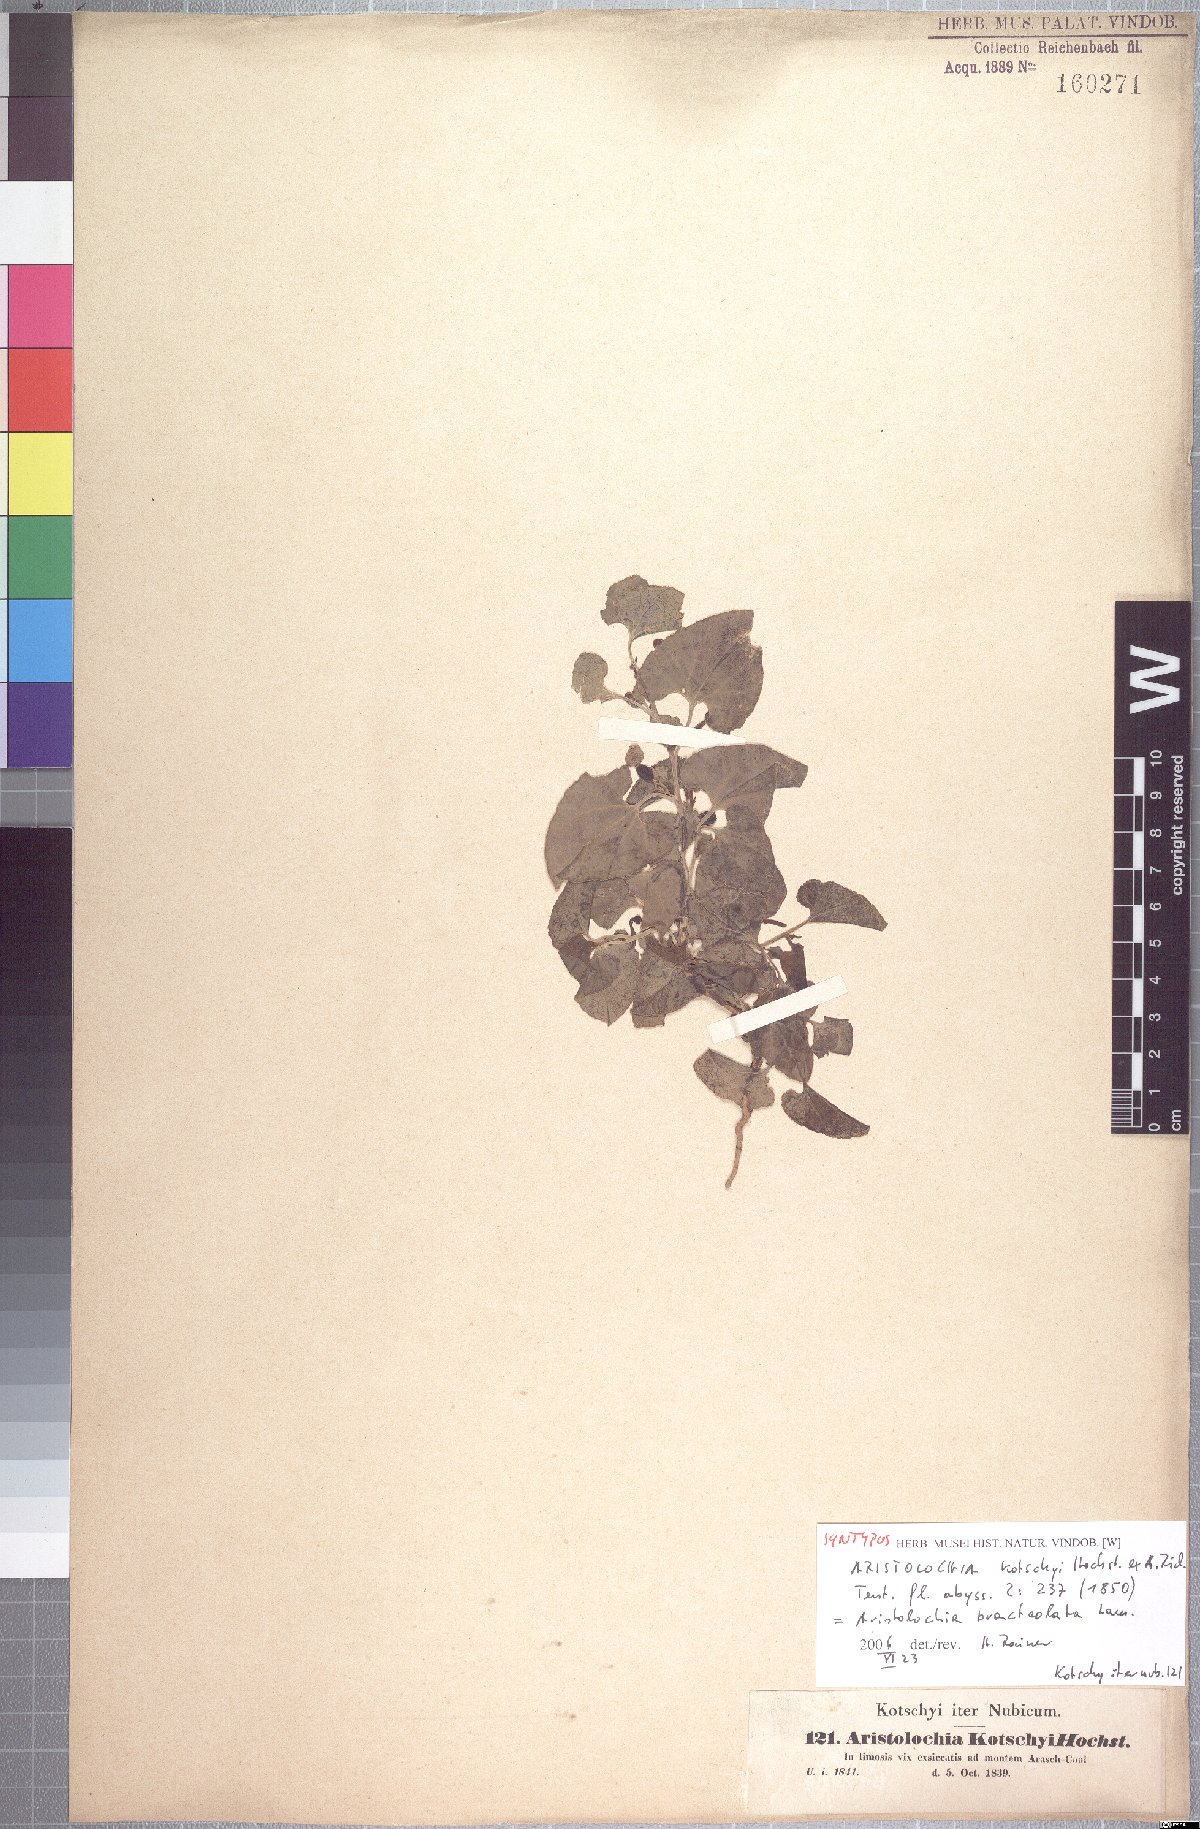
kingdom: Plantae
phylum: Tracheophyta
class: Magnoliopsida
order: Piperales
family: Aristolochiaceae
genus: Aristolochia
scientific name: Aristolochia bracteolata
